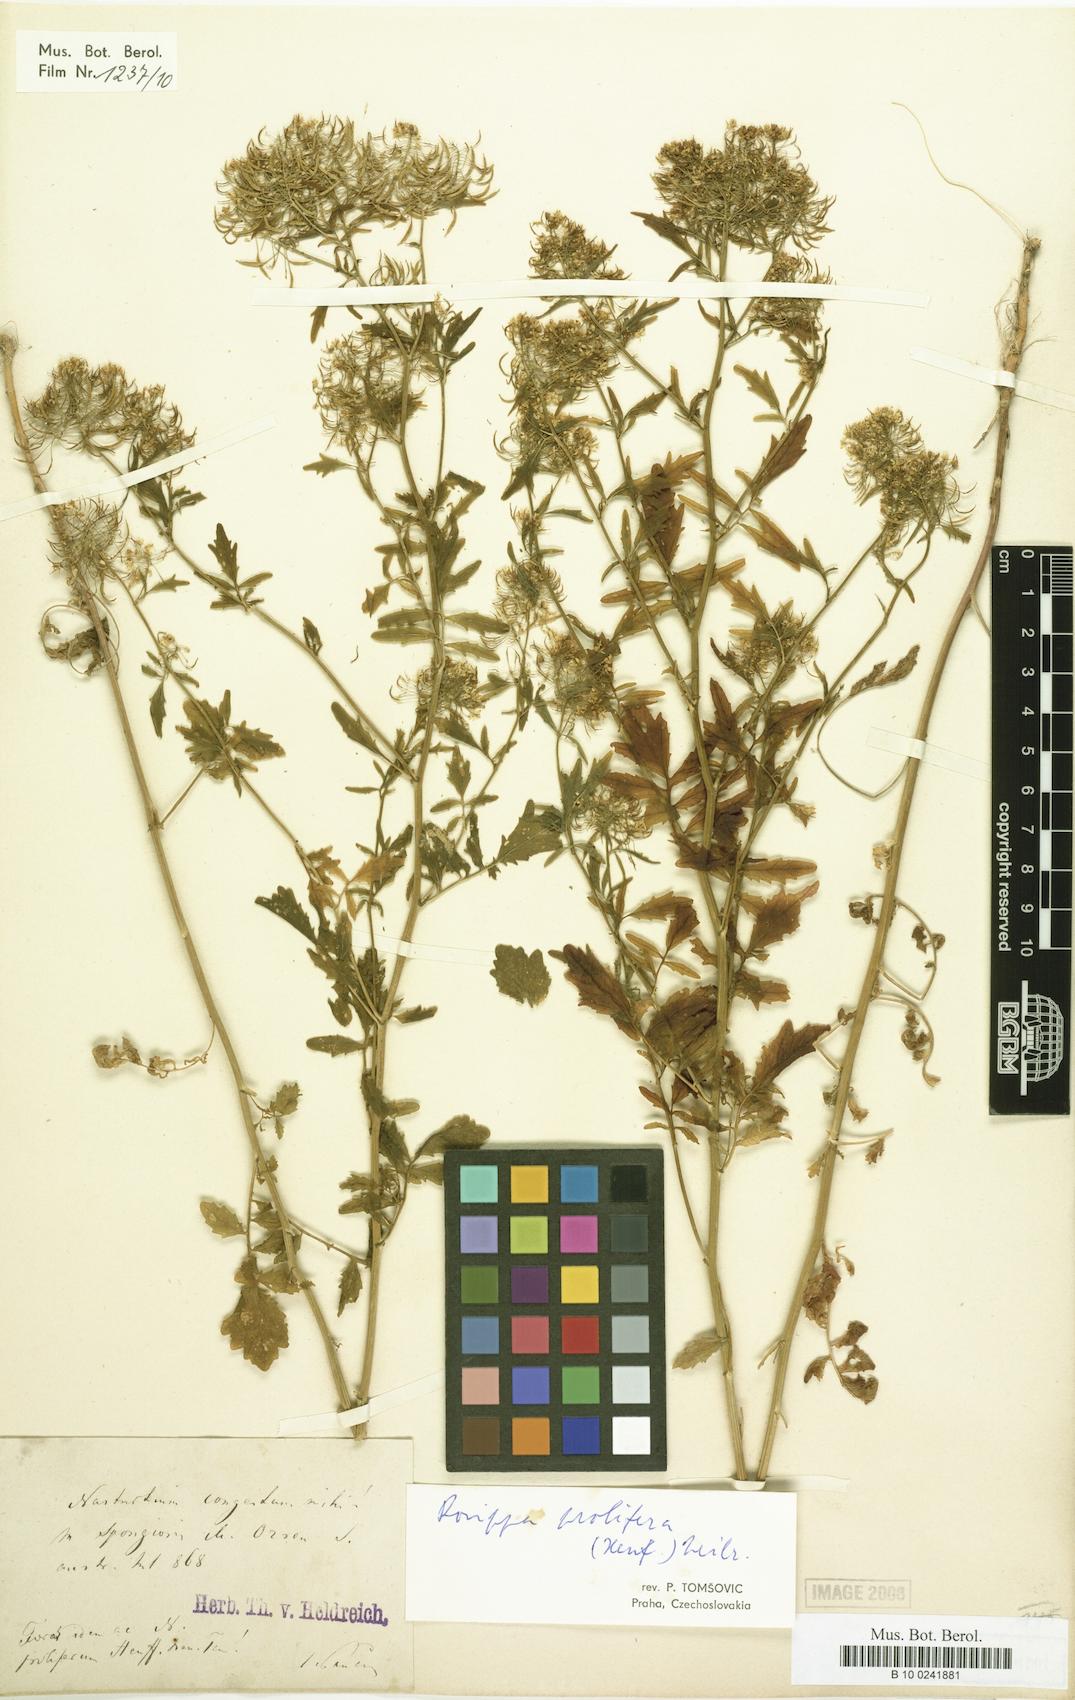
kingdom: Plantae
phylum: Tracheophyta
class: Magnoliopsida
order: Brassicales
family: Brassicaceae
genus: Nasturtium
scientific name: Nasturtium
